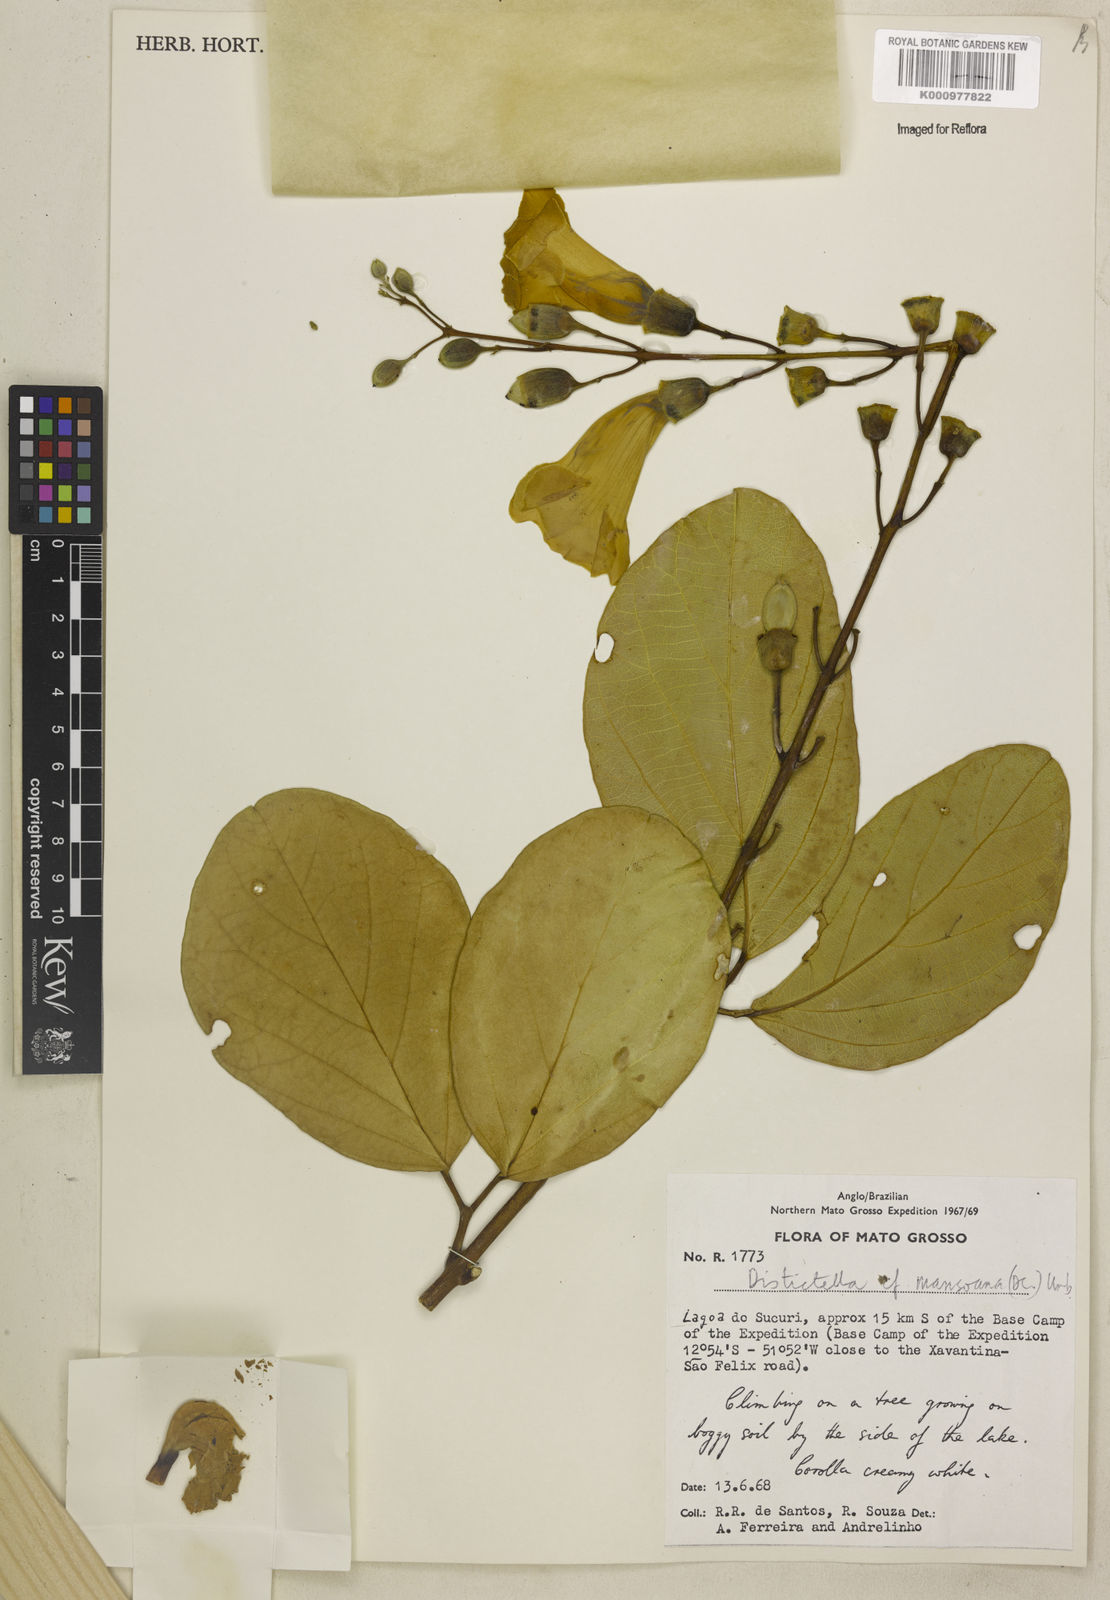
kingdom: Plantae
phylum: Tracheophyta
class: Magnoliopsida
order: Lamiales
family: Bignoniaceae
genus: Amphilophium
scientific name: Amphilophium mansoanum
